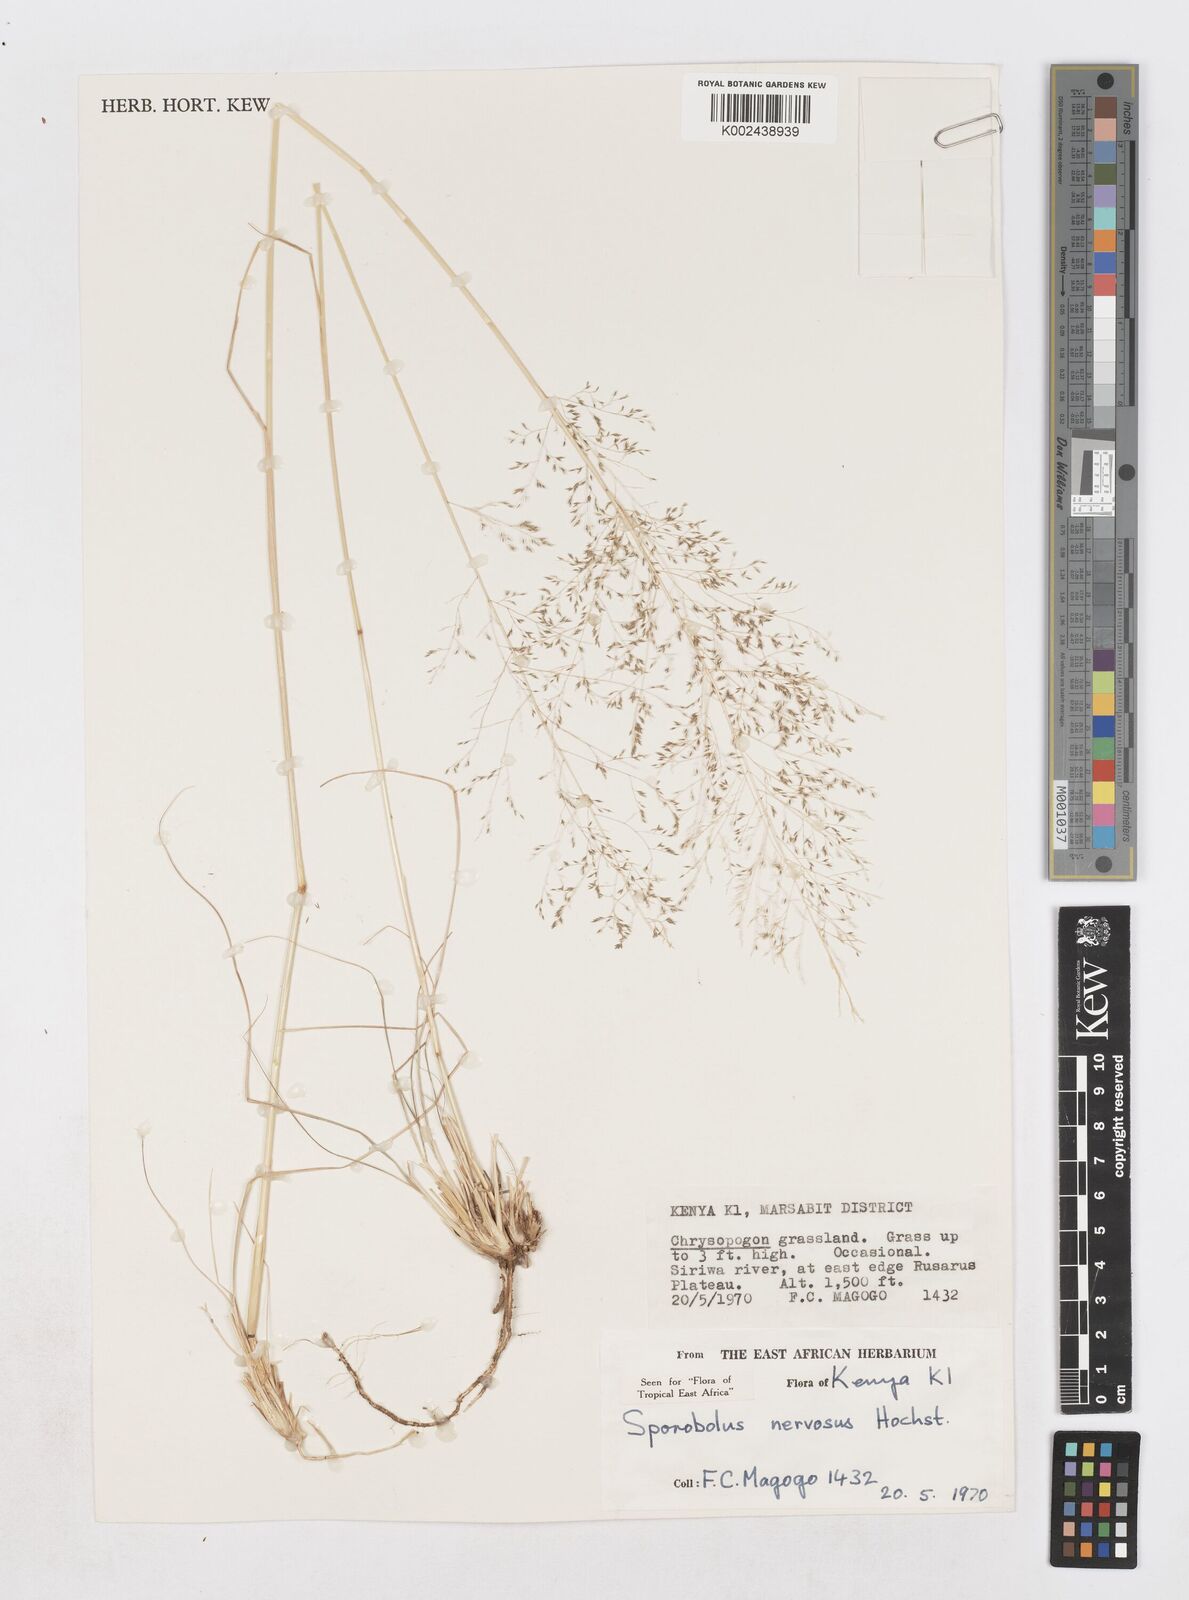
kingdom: Plantae
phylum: Tracheophyta
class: Liliopsida
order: Poales
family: Poaceae
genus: Sporobolus
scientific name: Sporobolus nervosus
